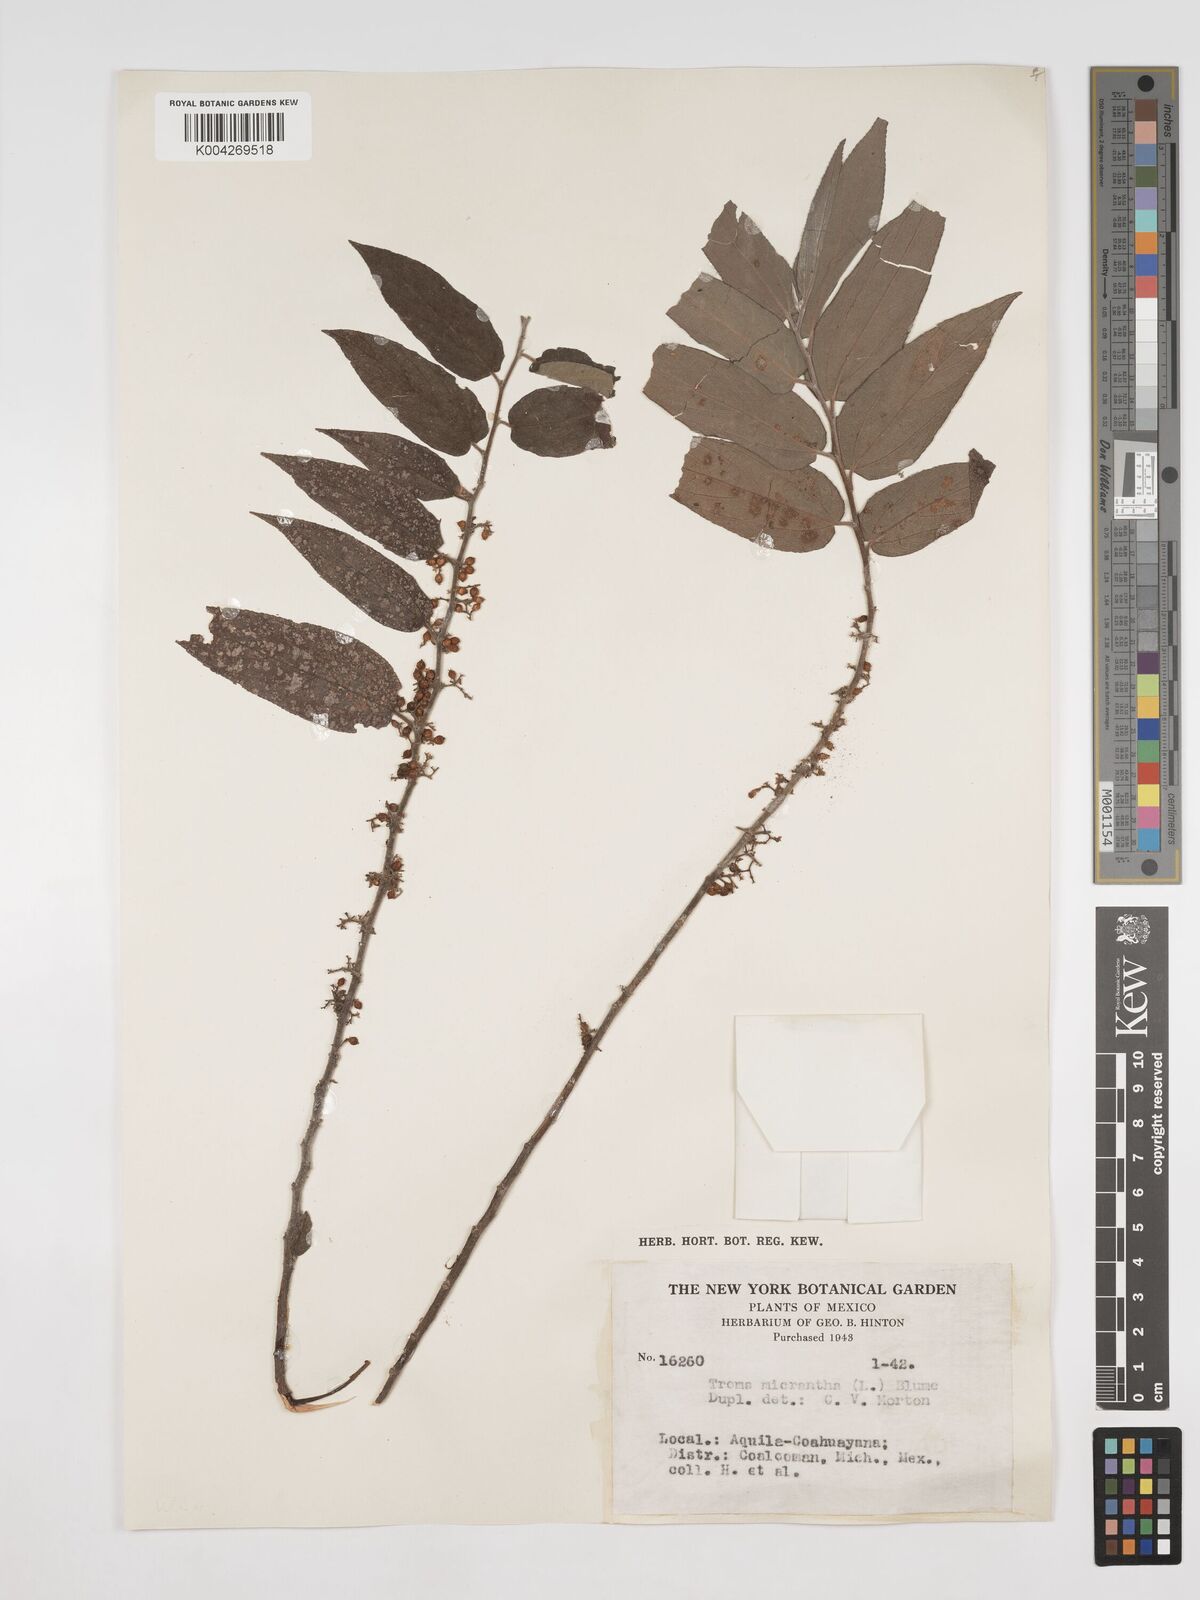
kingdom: Plantae
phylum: Tracheophyta
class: Magnoliopsida
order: Rosales
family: Cannabaceae
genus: Trema
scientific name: Trema micranthum
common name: Jamaican nettletree
